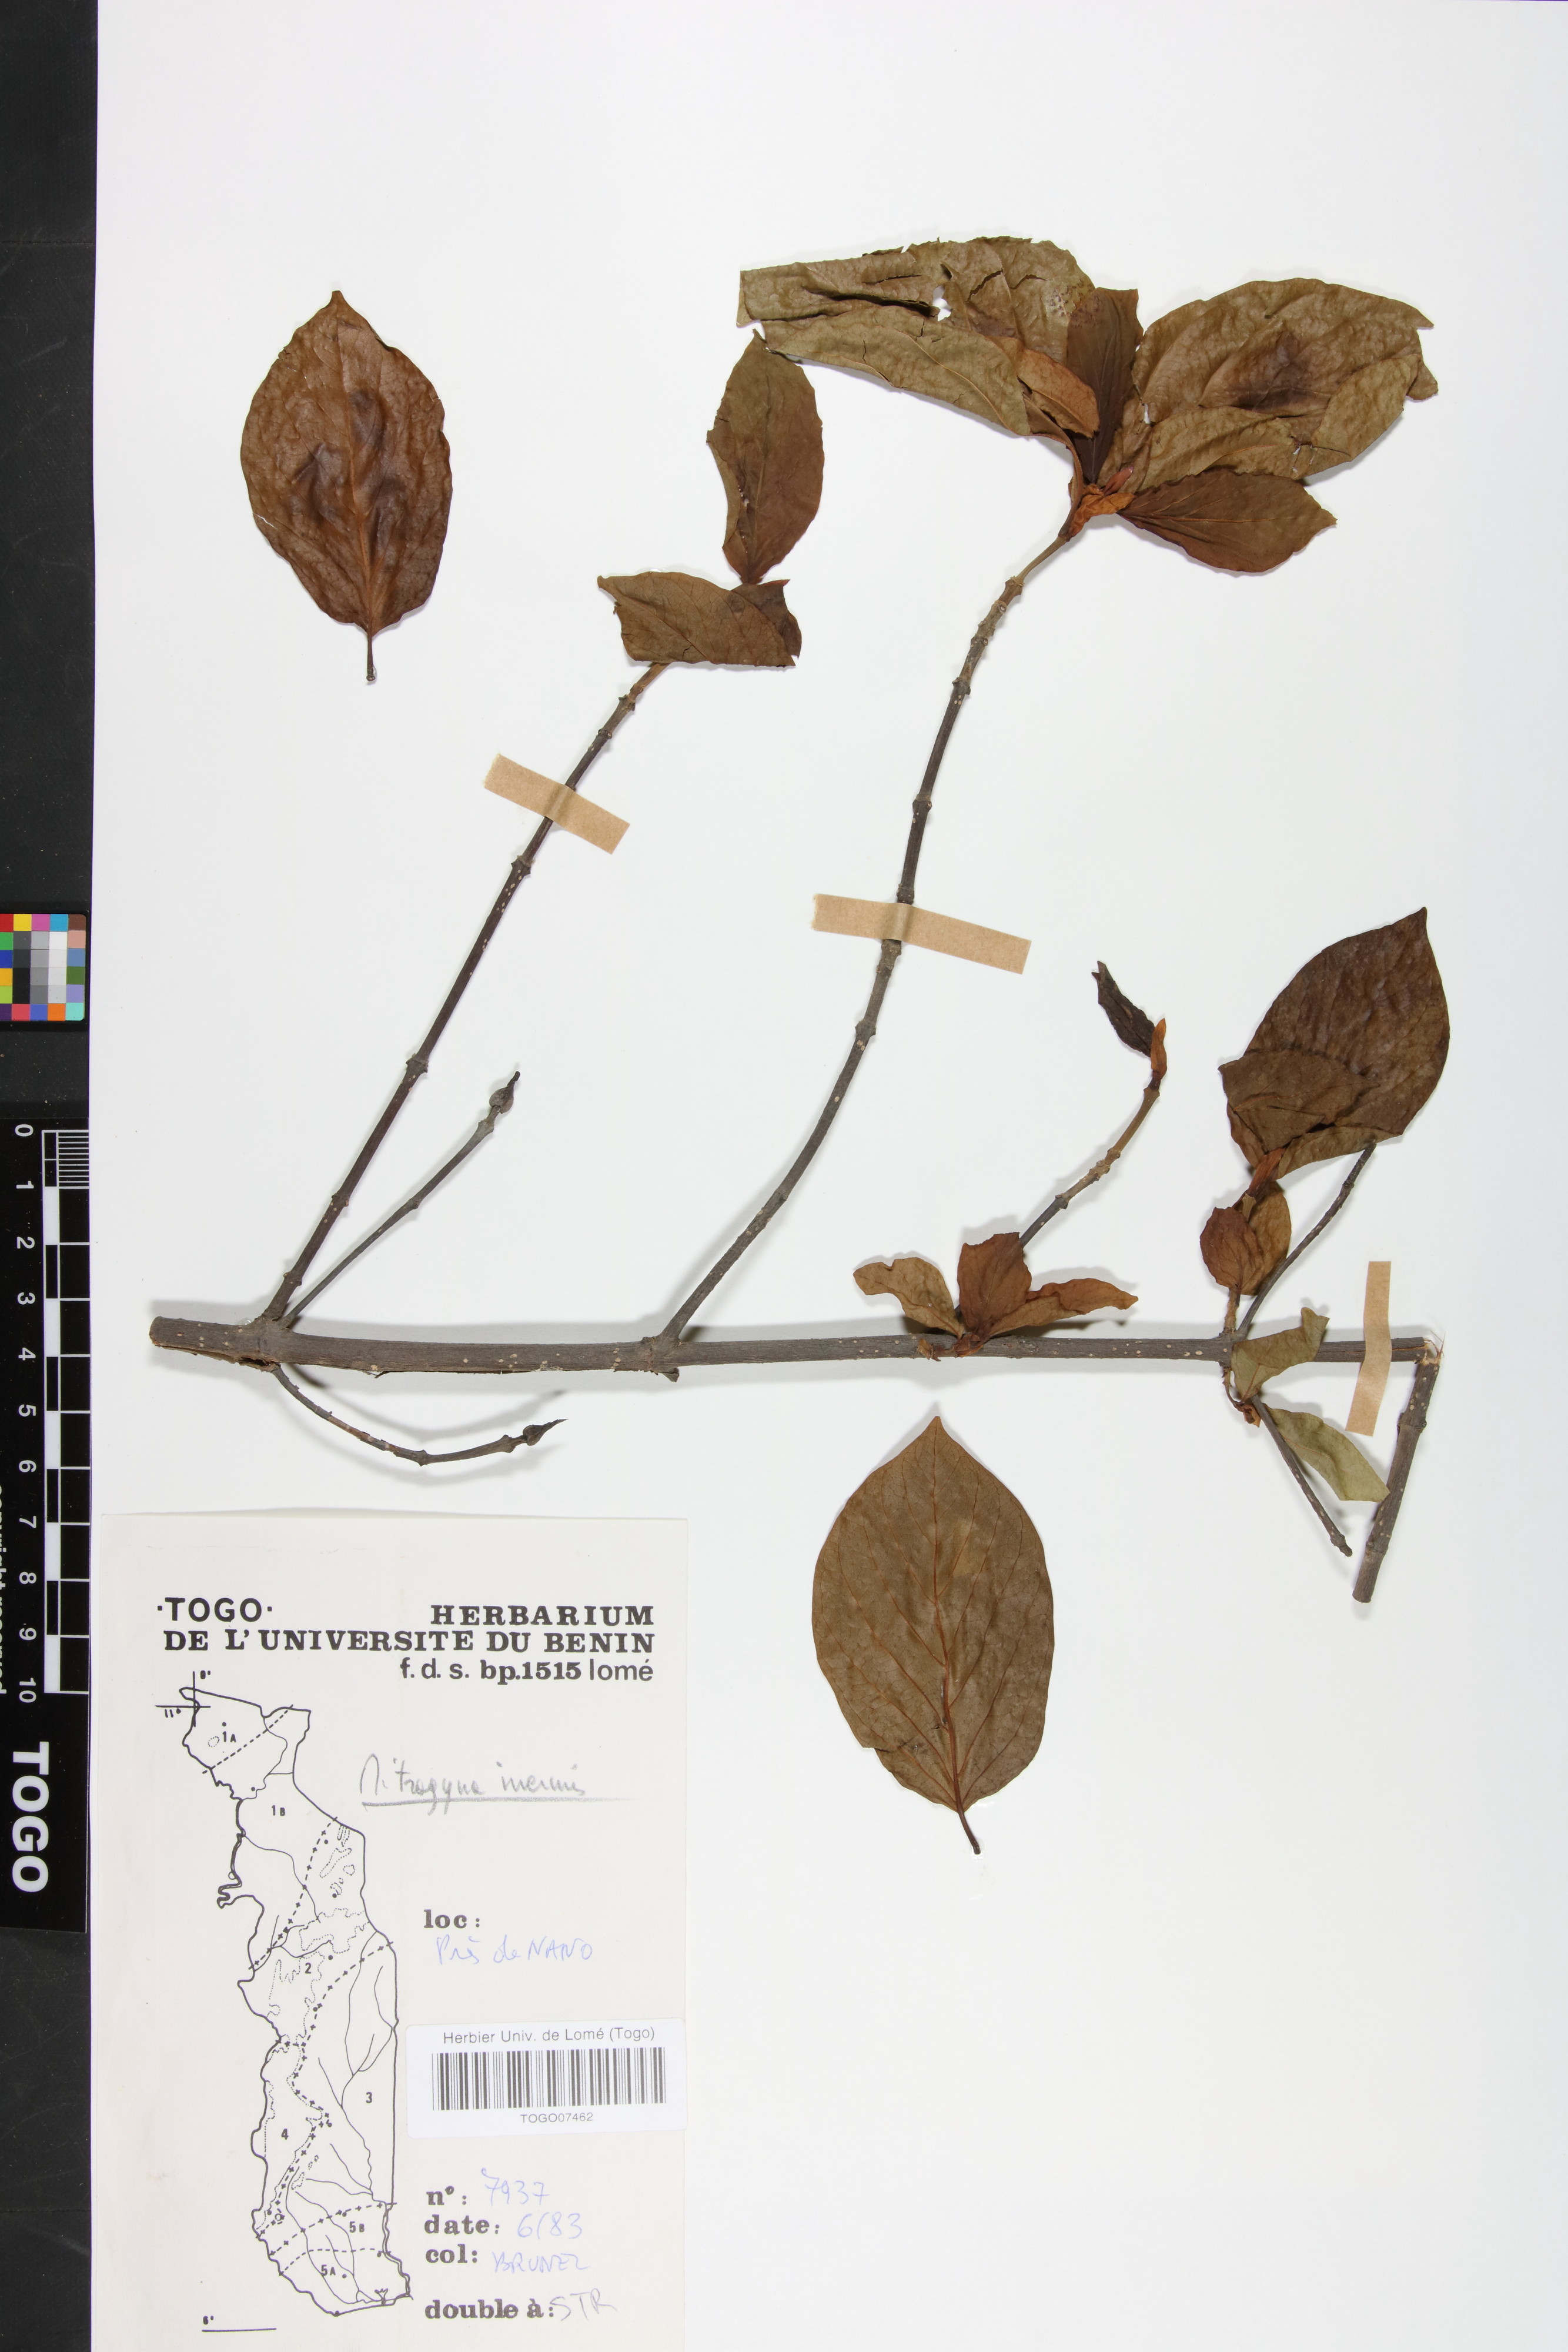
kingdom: Plantae
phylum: Tracheophyta
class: Magnoliopsida
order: Gentianales
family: Rubiaceae
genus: Mitragyna
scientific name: Mitragyna inermis
